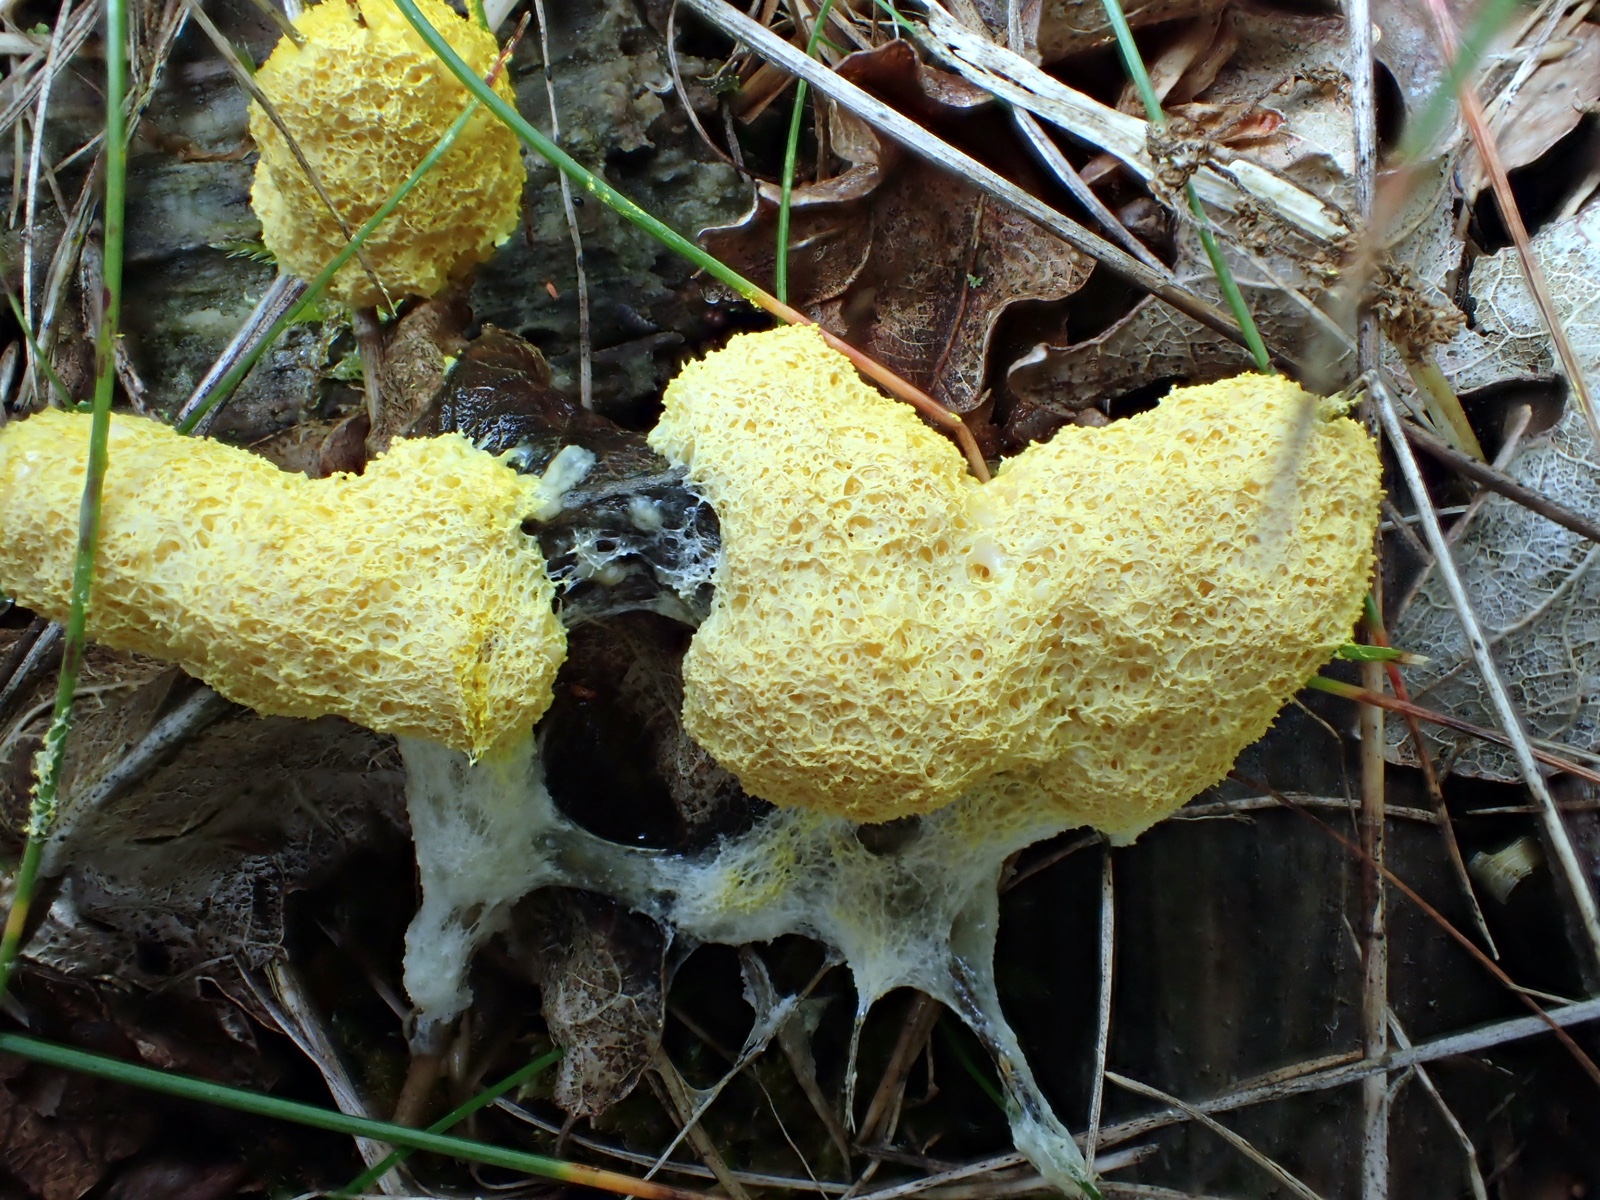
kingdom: Protozoa
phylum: Mycetozoa
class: Myxomycetes
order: Physarales
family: Physaraceae
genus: Fuligo
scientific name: Fuligo septica
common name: gul troldsmør
